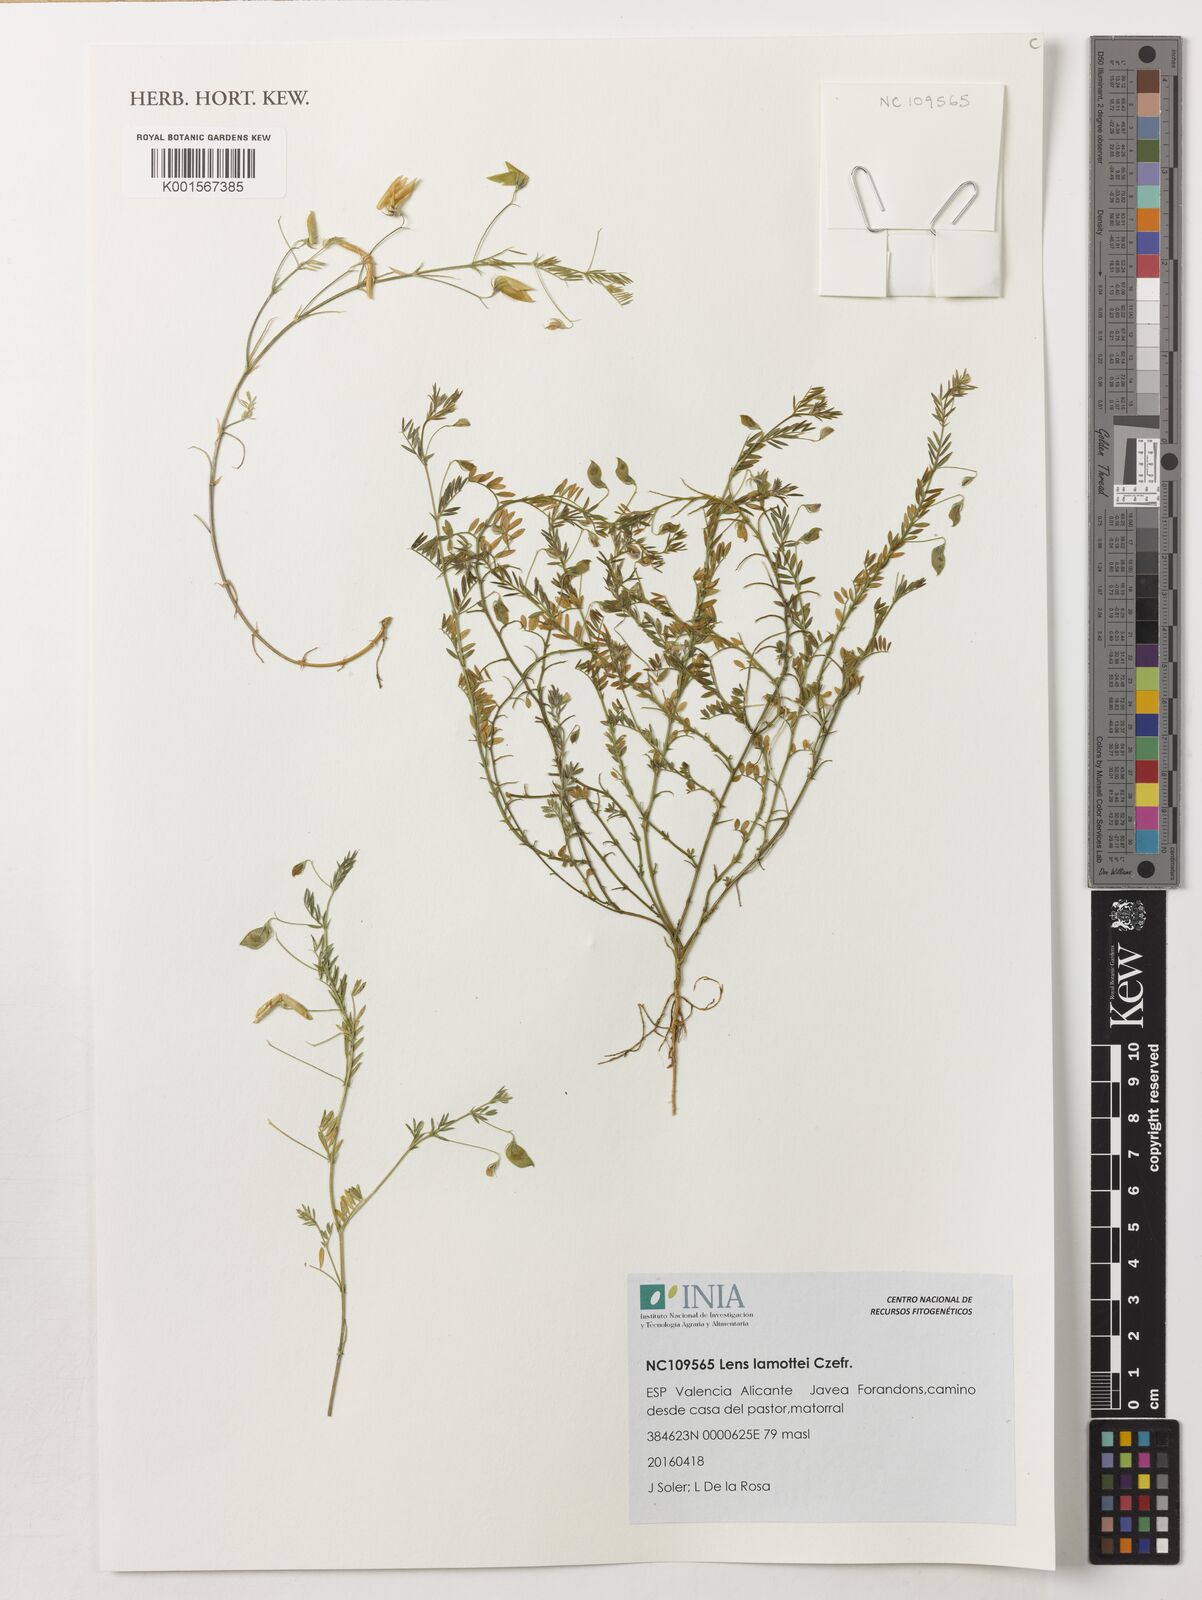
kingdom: Plantae
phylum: Tracheophyta
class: Magnoliopsida
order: Fabales
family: Fabaceae
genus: Vicia
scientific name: Vicia lens
